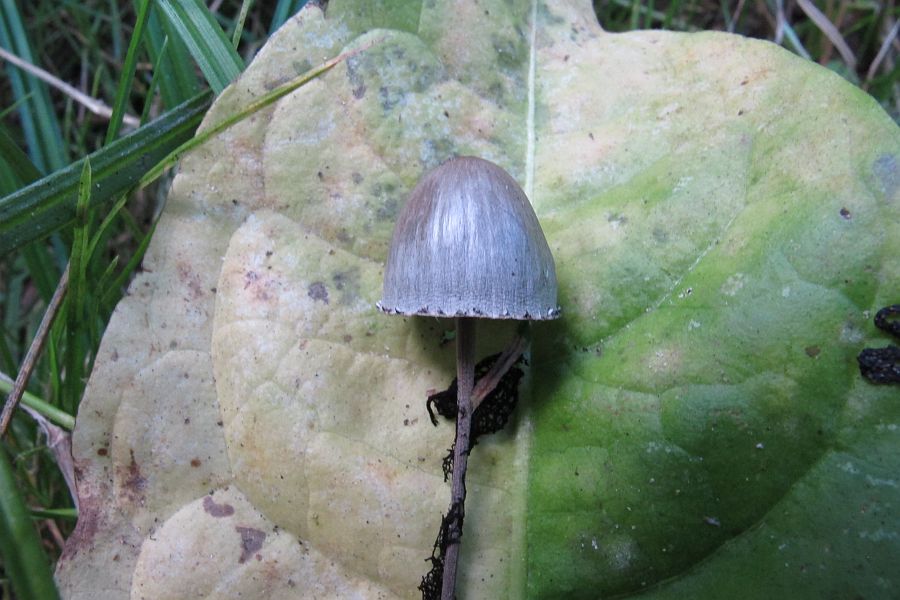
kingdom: Fungi
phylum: Basidiomycota
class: Agaricomycetes
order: Agaricales
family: Bolbitiaceae
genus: Panaeolus
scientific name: Panaeolus papilionaceus
